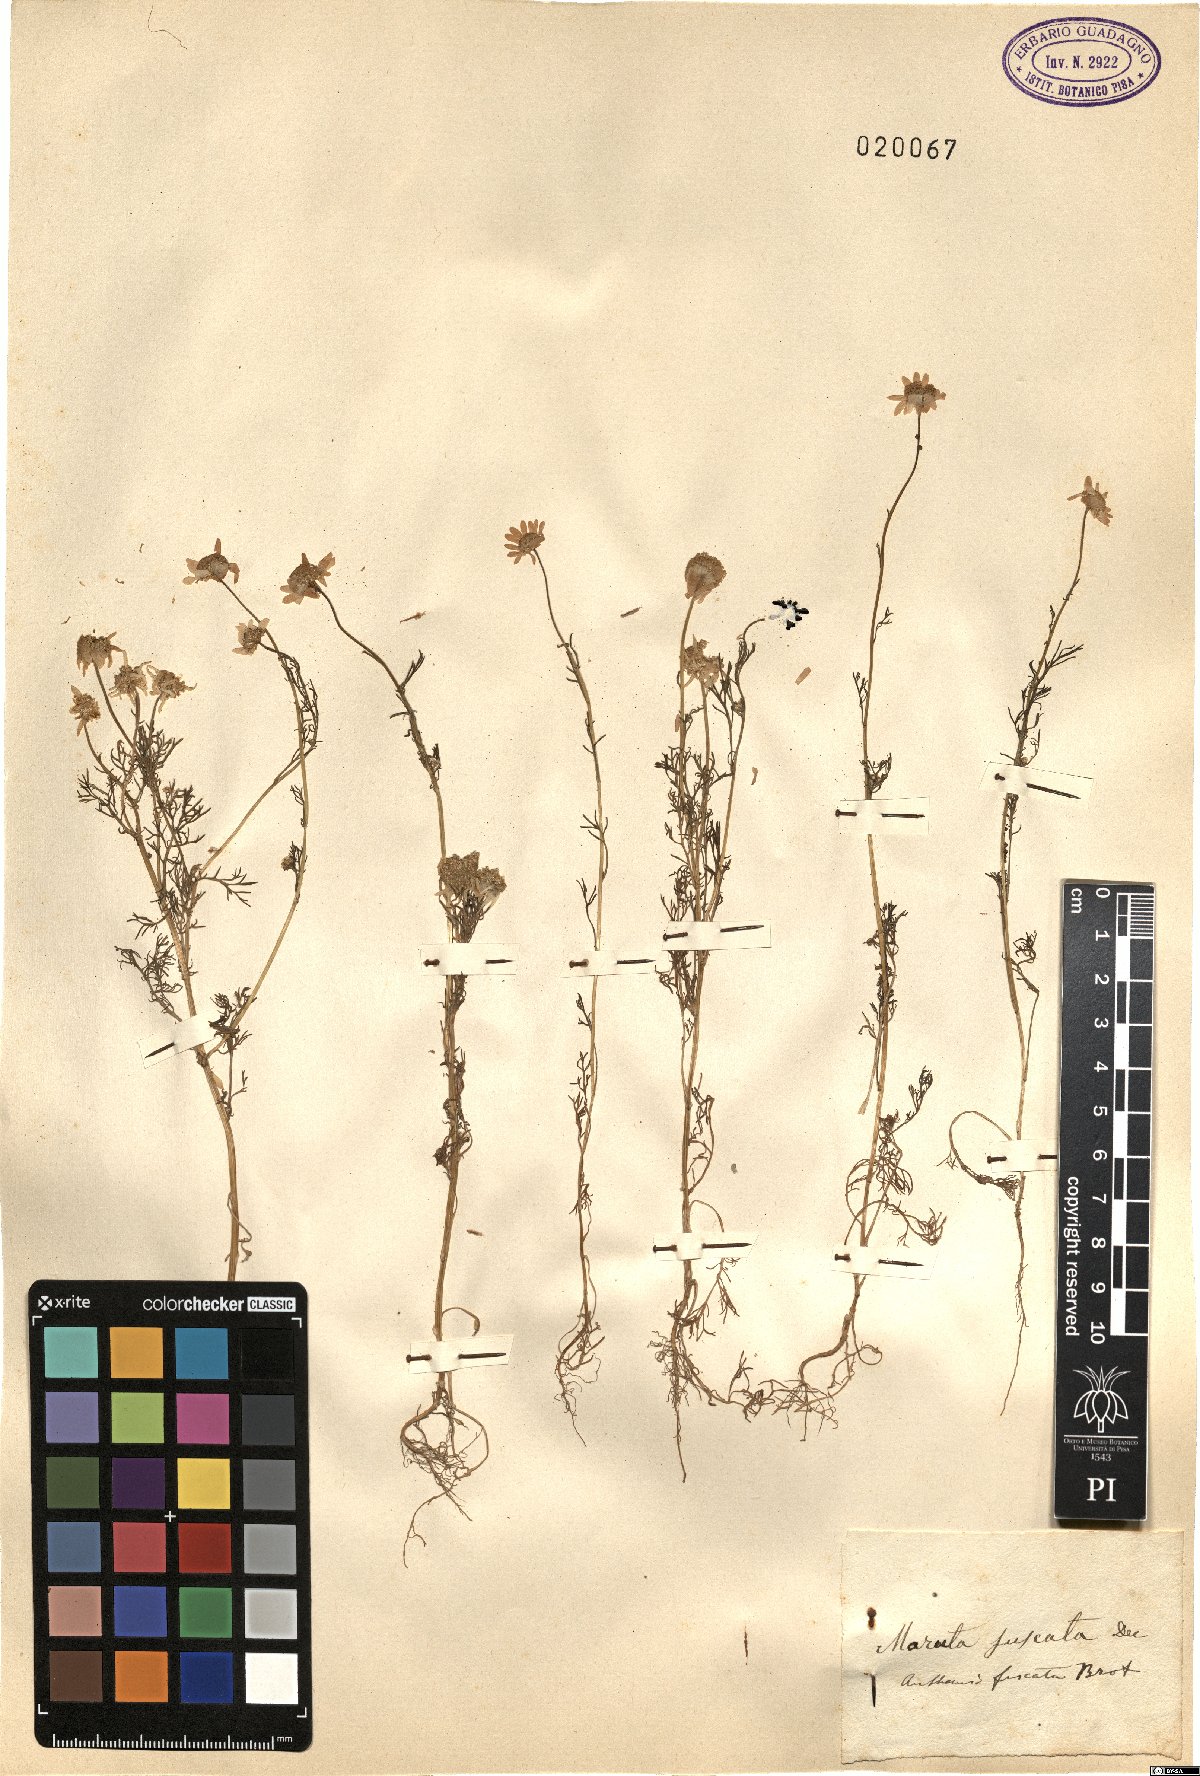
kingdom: Plantae
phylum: Tracheophyta
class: Magnoliopsida
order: Asterales
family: Asteraceae
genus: Chamaemelum
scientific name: Chamaemelum fuscatum
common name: Chamomile
